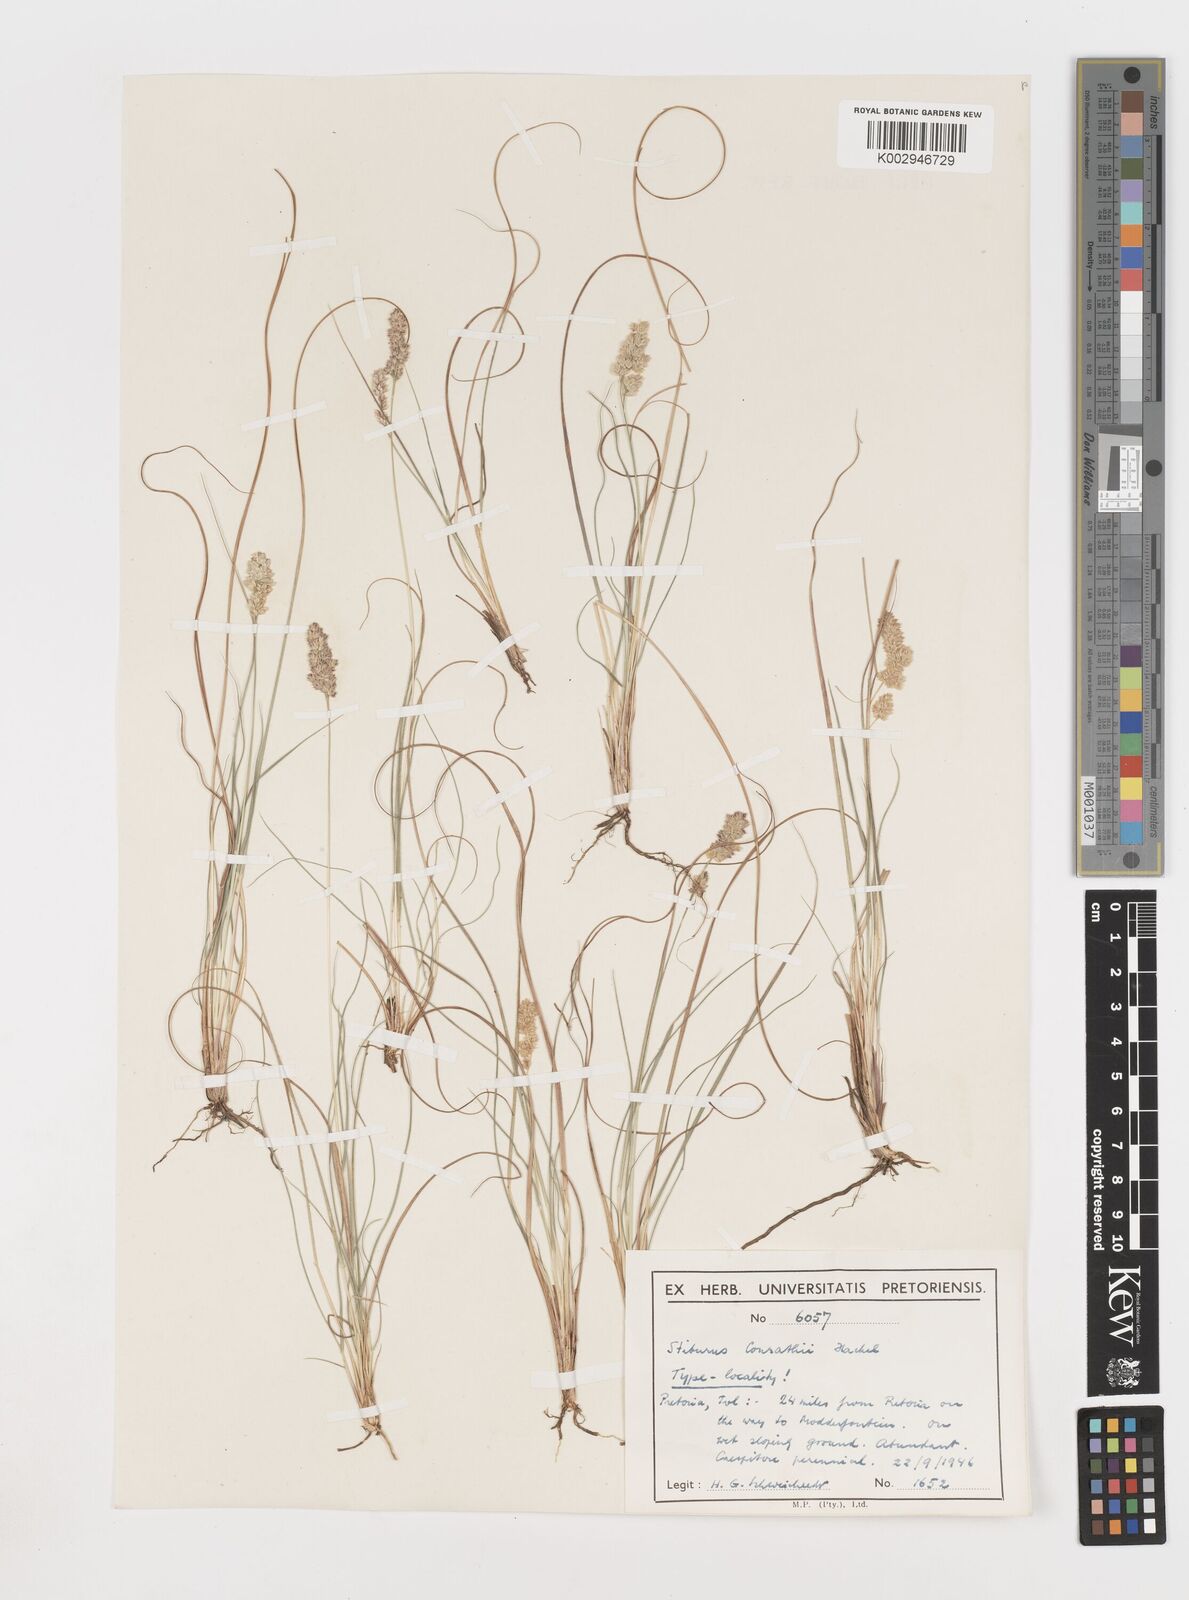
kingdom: Plantae
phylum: Tracheophyta
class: Liliopsida
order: Poales
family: Poaceae
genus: Stiburus
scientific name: Stiburus conrathii
